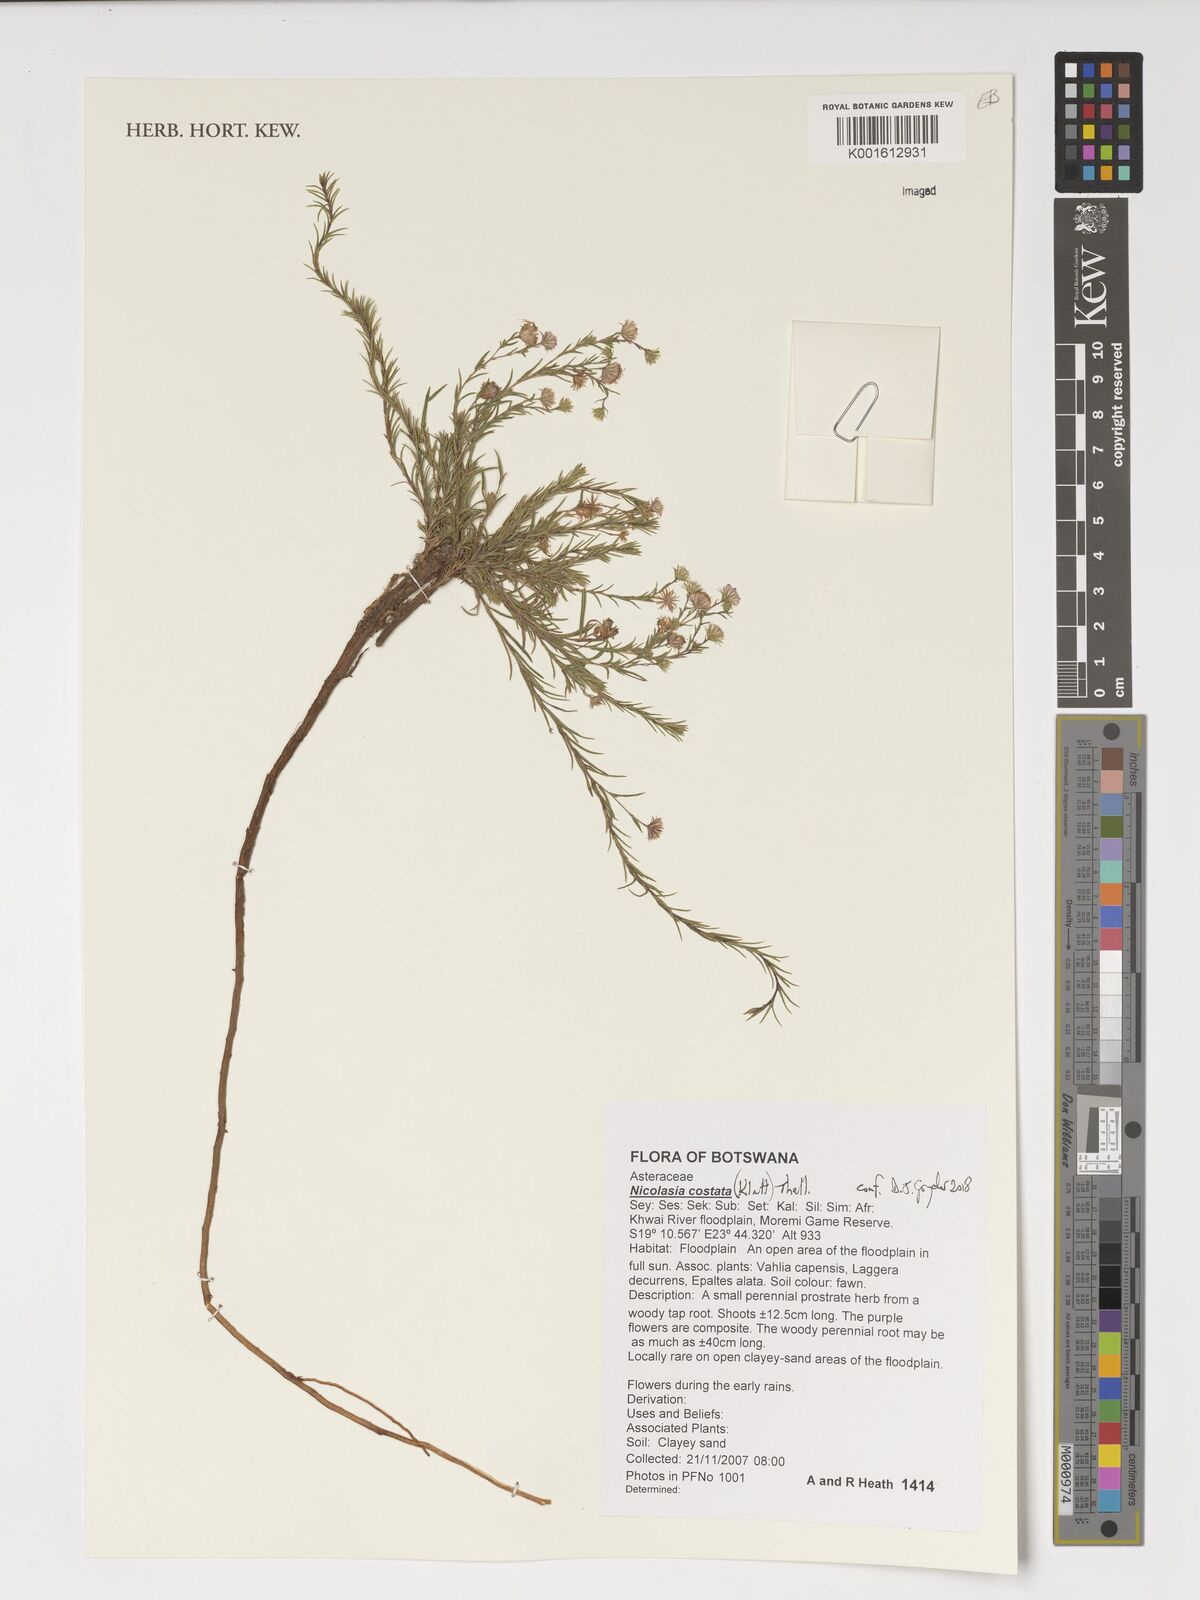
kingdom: Plantae
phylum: Tracheophyta
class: Magnoliopsida
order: Asterales
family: Asteraceae
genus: Nicolasia
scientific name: Nicolasia costata
